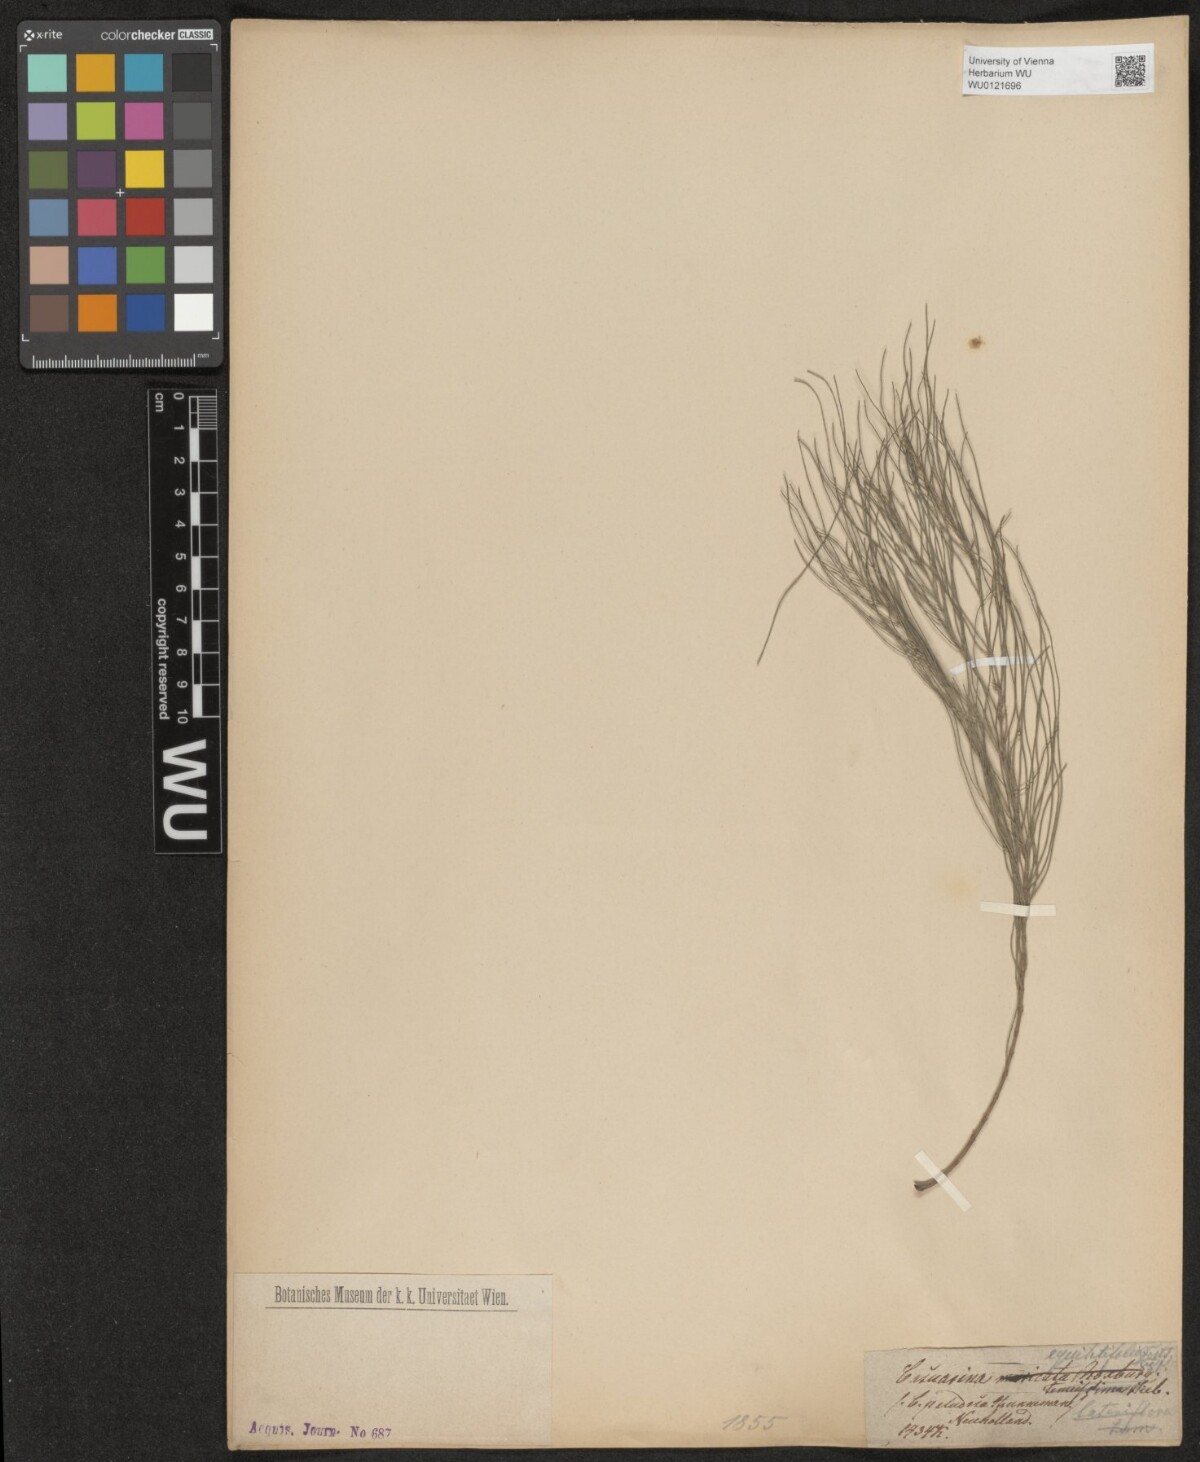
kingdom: Plantae
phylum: Tracheophyta
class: Magnoliopsida
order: Fagales
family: Casuarinaceae
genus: Casuarina
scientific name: Casuarina stricta
